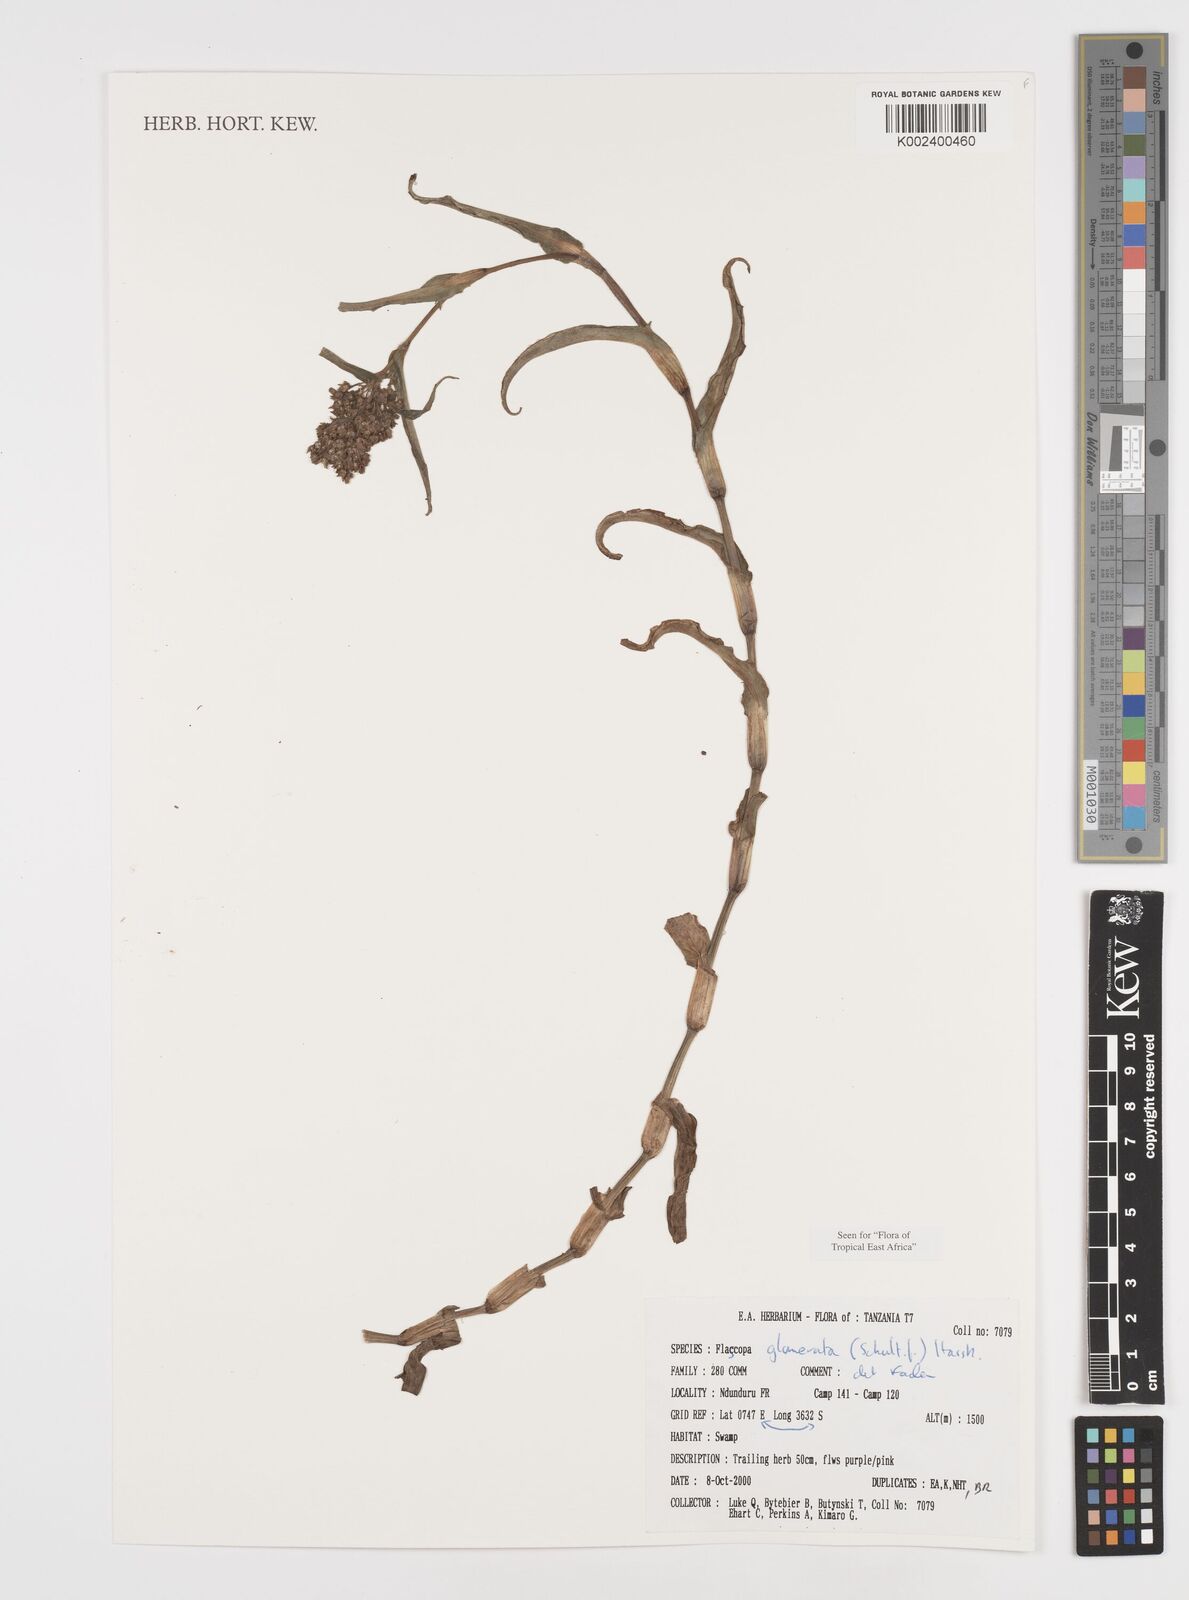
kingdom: Plantae
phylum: Tracheophyta
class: Liliopsida
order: Commelinales
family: Commelinaceae
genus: Floscopa
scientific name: Floscopa glomerata
